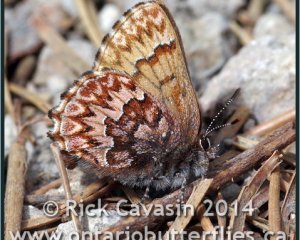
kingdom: Animalia
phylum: Arthropoda
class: Insecta
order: Lepidoptera
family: Lycaenidae
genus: Incisalia
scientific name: Incisalia eryphon
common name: Western Pine Elfin
